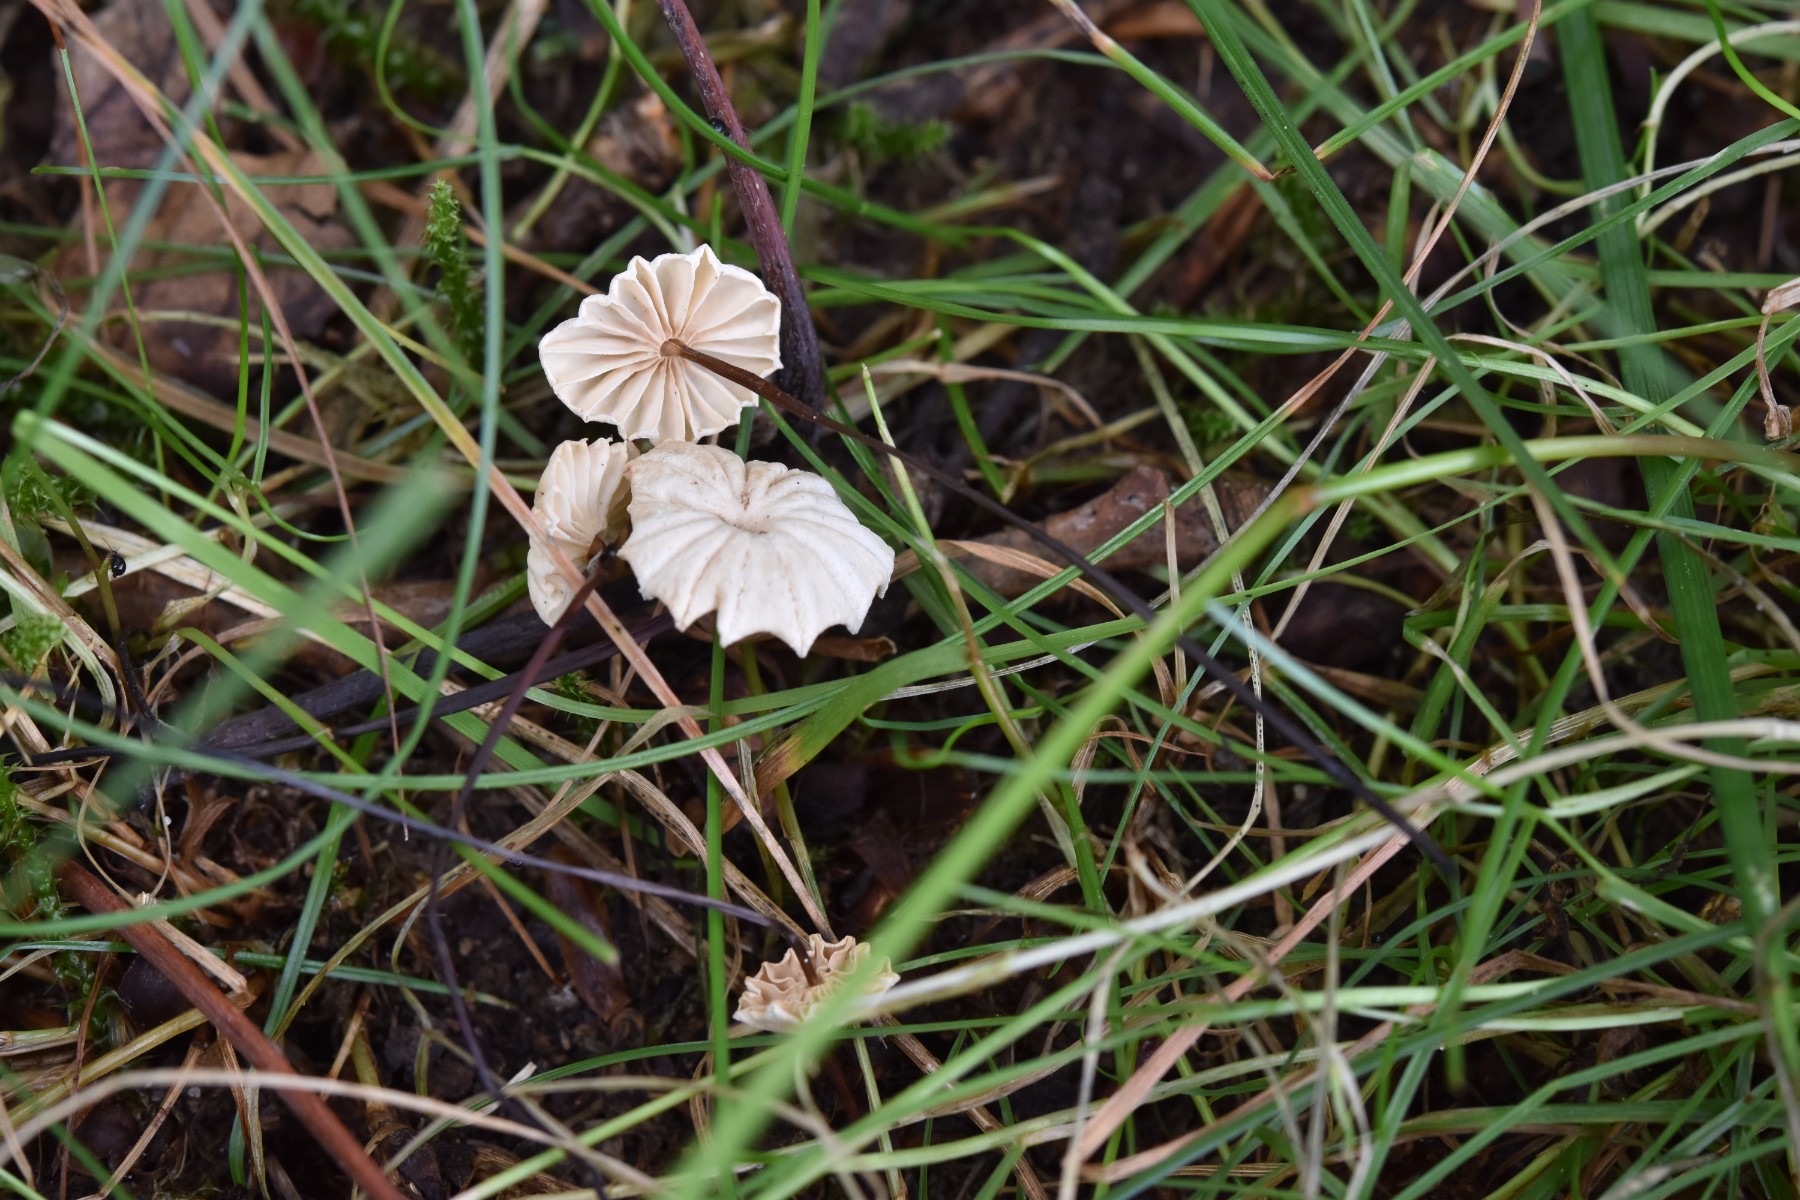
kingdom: Fungi
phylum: Basidiomycota
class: Agaricomycetes
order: Agaricales
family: Marasmiaceae
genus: Marasmius
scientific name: Marasmius rotula
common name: hjul-bruskhat
